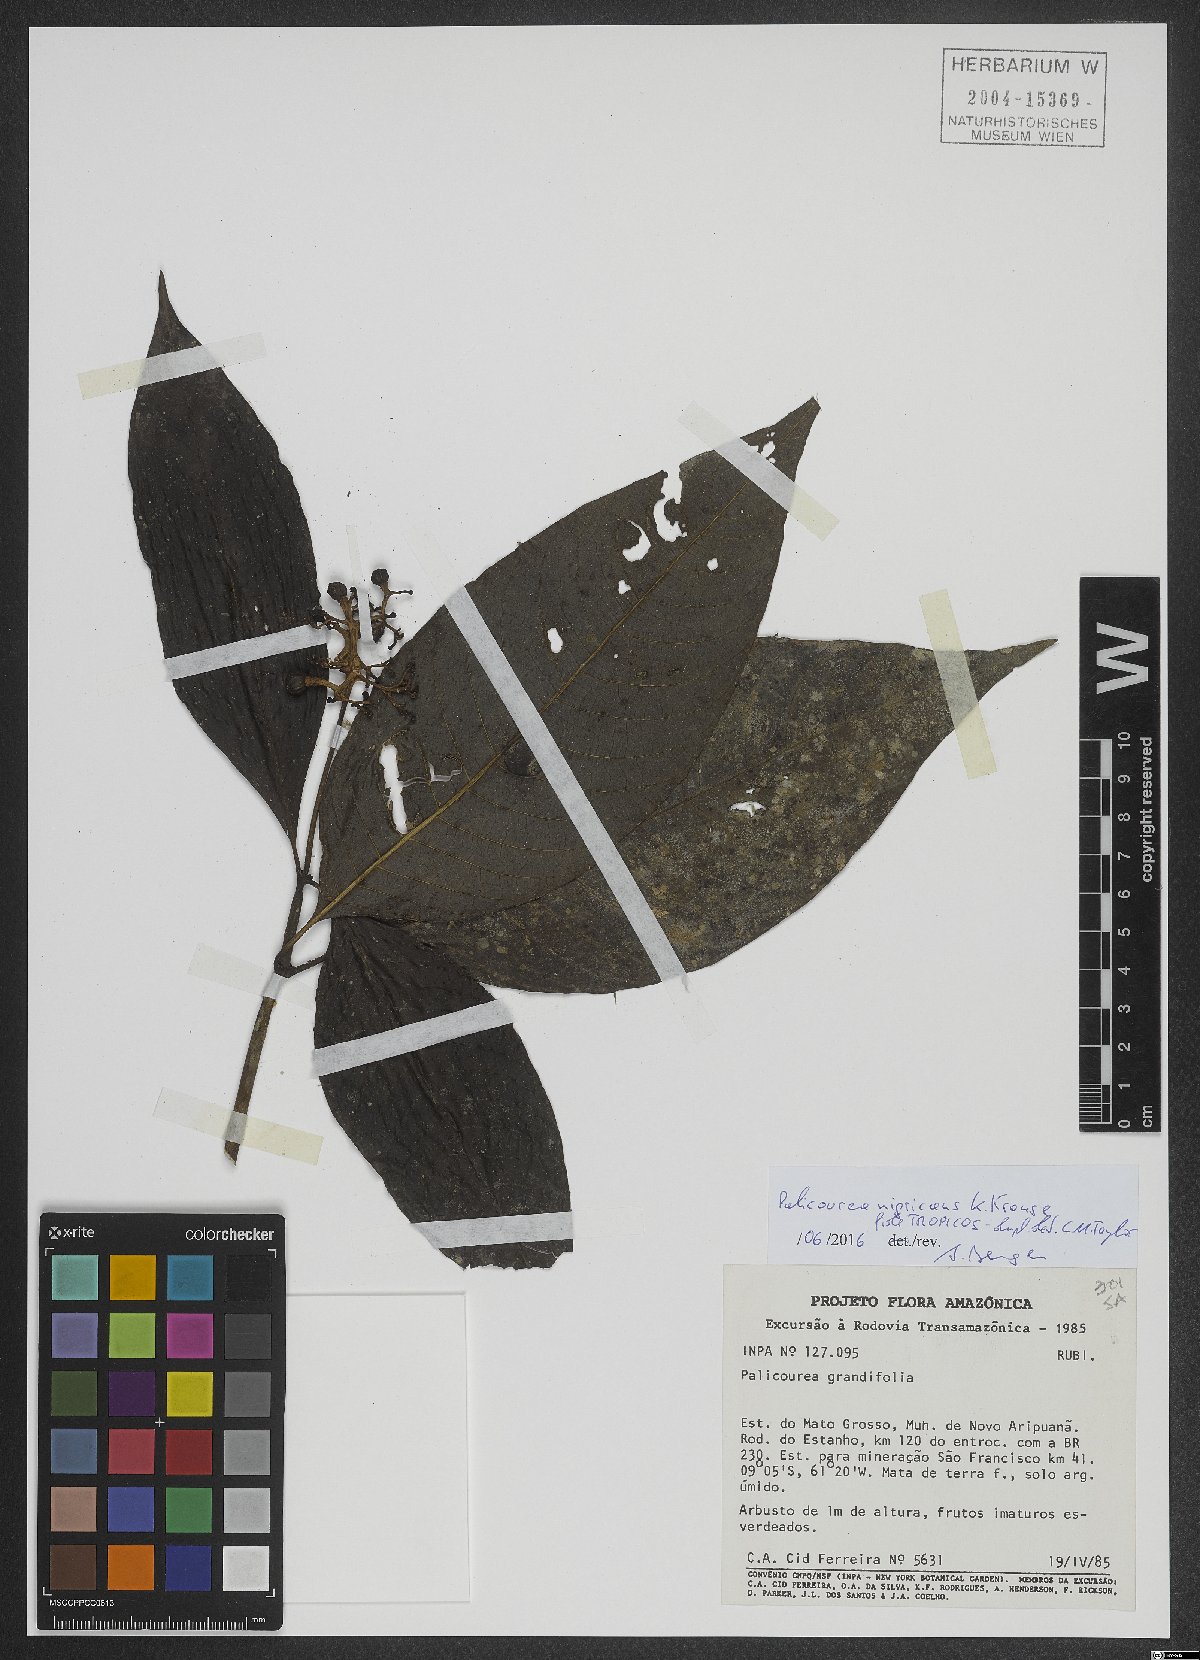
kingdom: Plantae
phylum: Tracheophyta
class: Magnoliopsida
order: Gentianales
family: Rubiaceae
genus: Palicourea
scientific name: Palicourea nigricans
